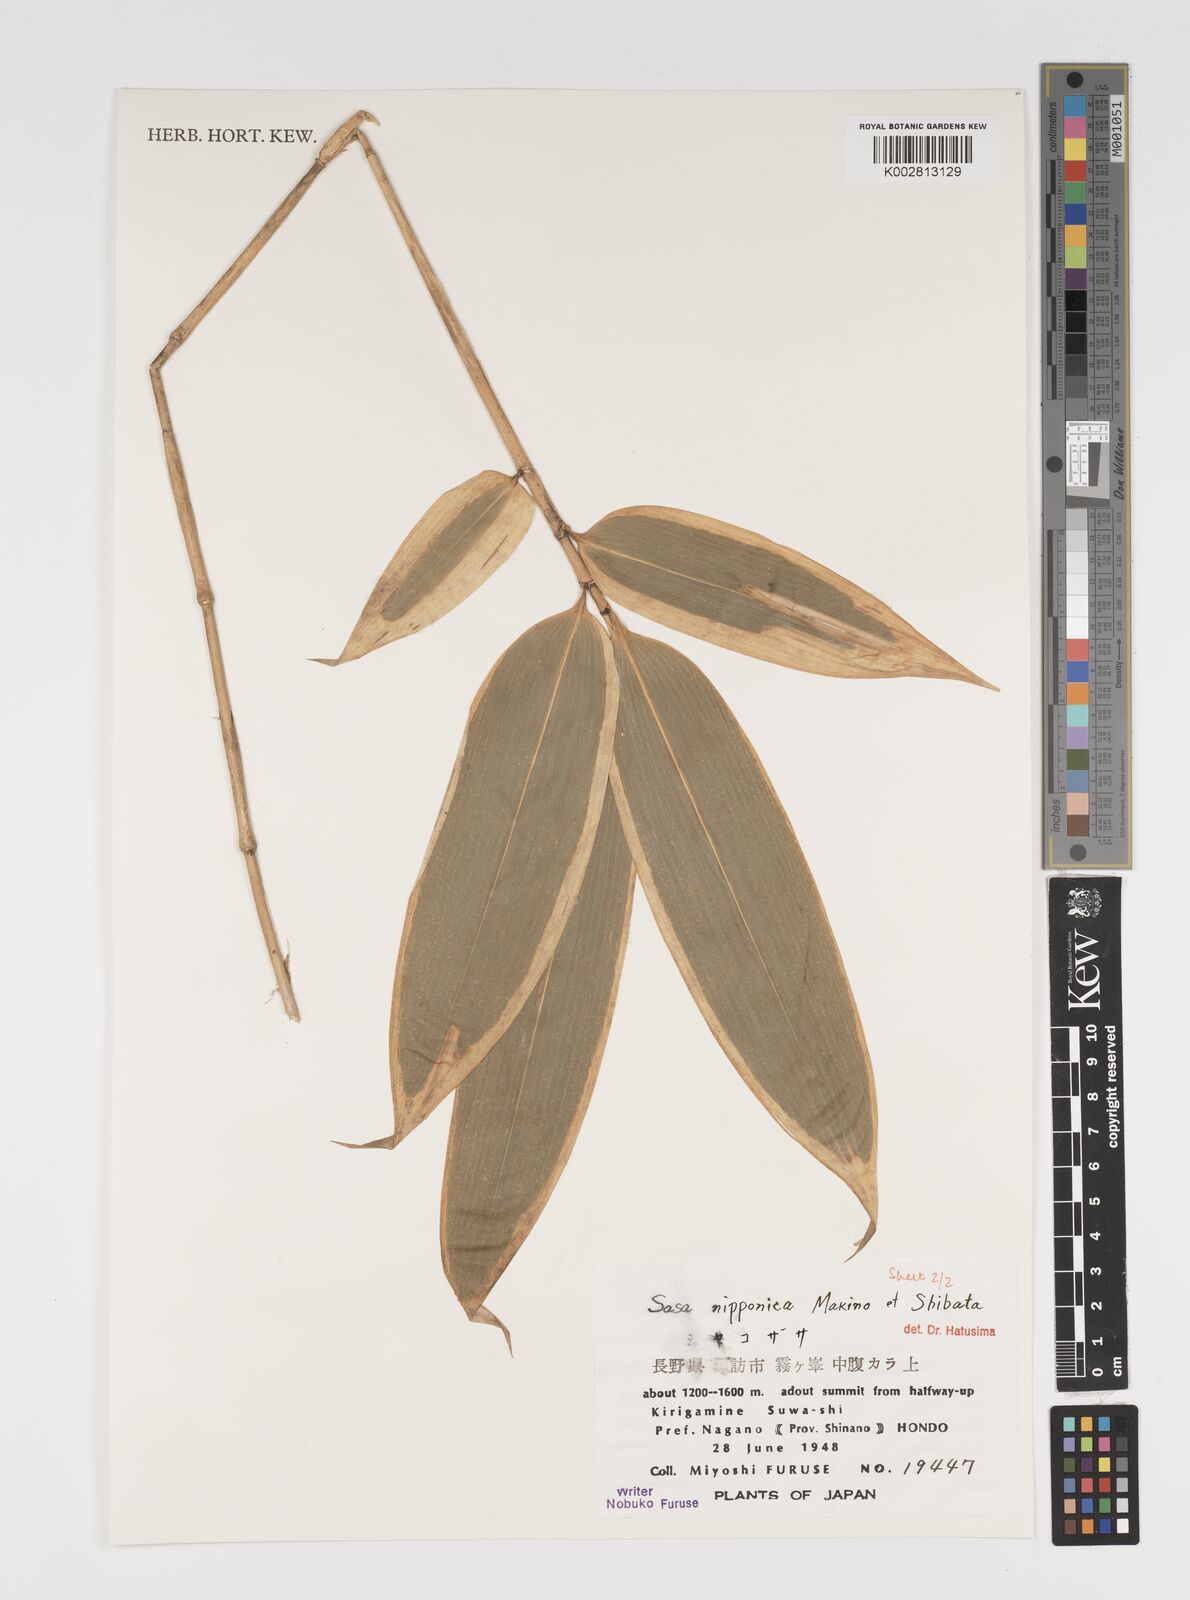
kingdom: Plantae
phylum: Tracheophyta
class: Liliopsida
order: Poales
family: Poaceae
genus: Sasa
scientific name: Sasa nipponica
